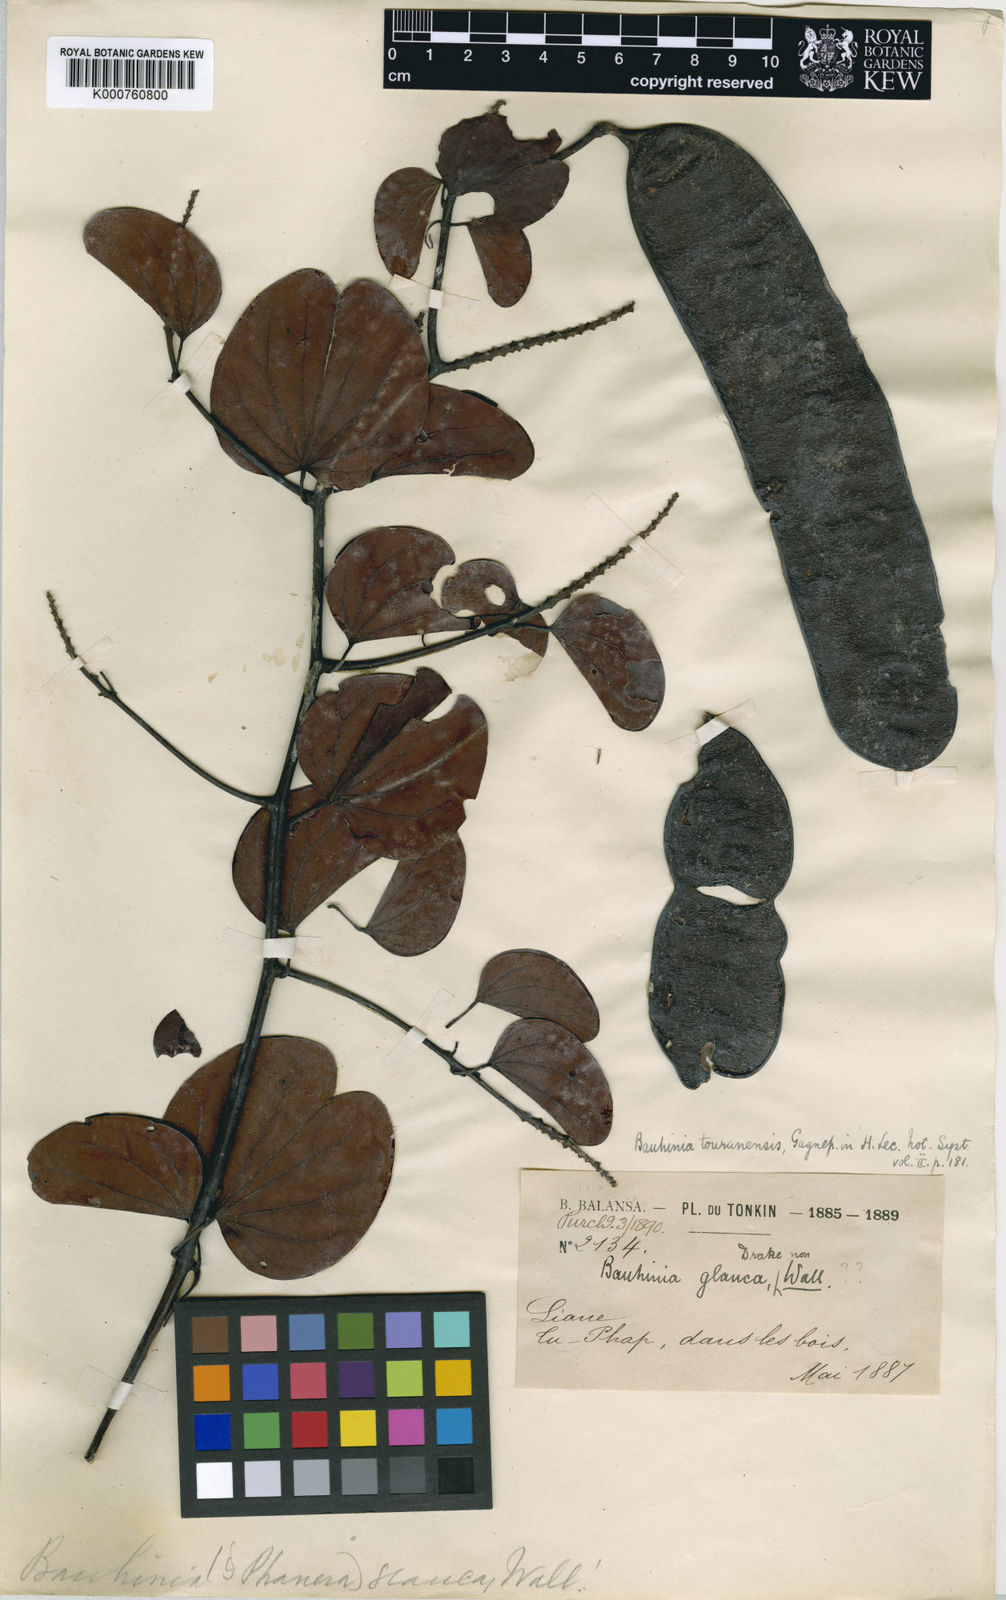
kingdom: Plantae
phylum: Tracheophyta
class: Magnoliopsida
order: Fabales
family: Fabaceae
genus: Cheniella
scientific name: Cheniella touranensis
